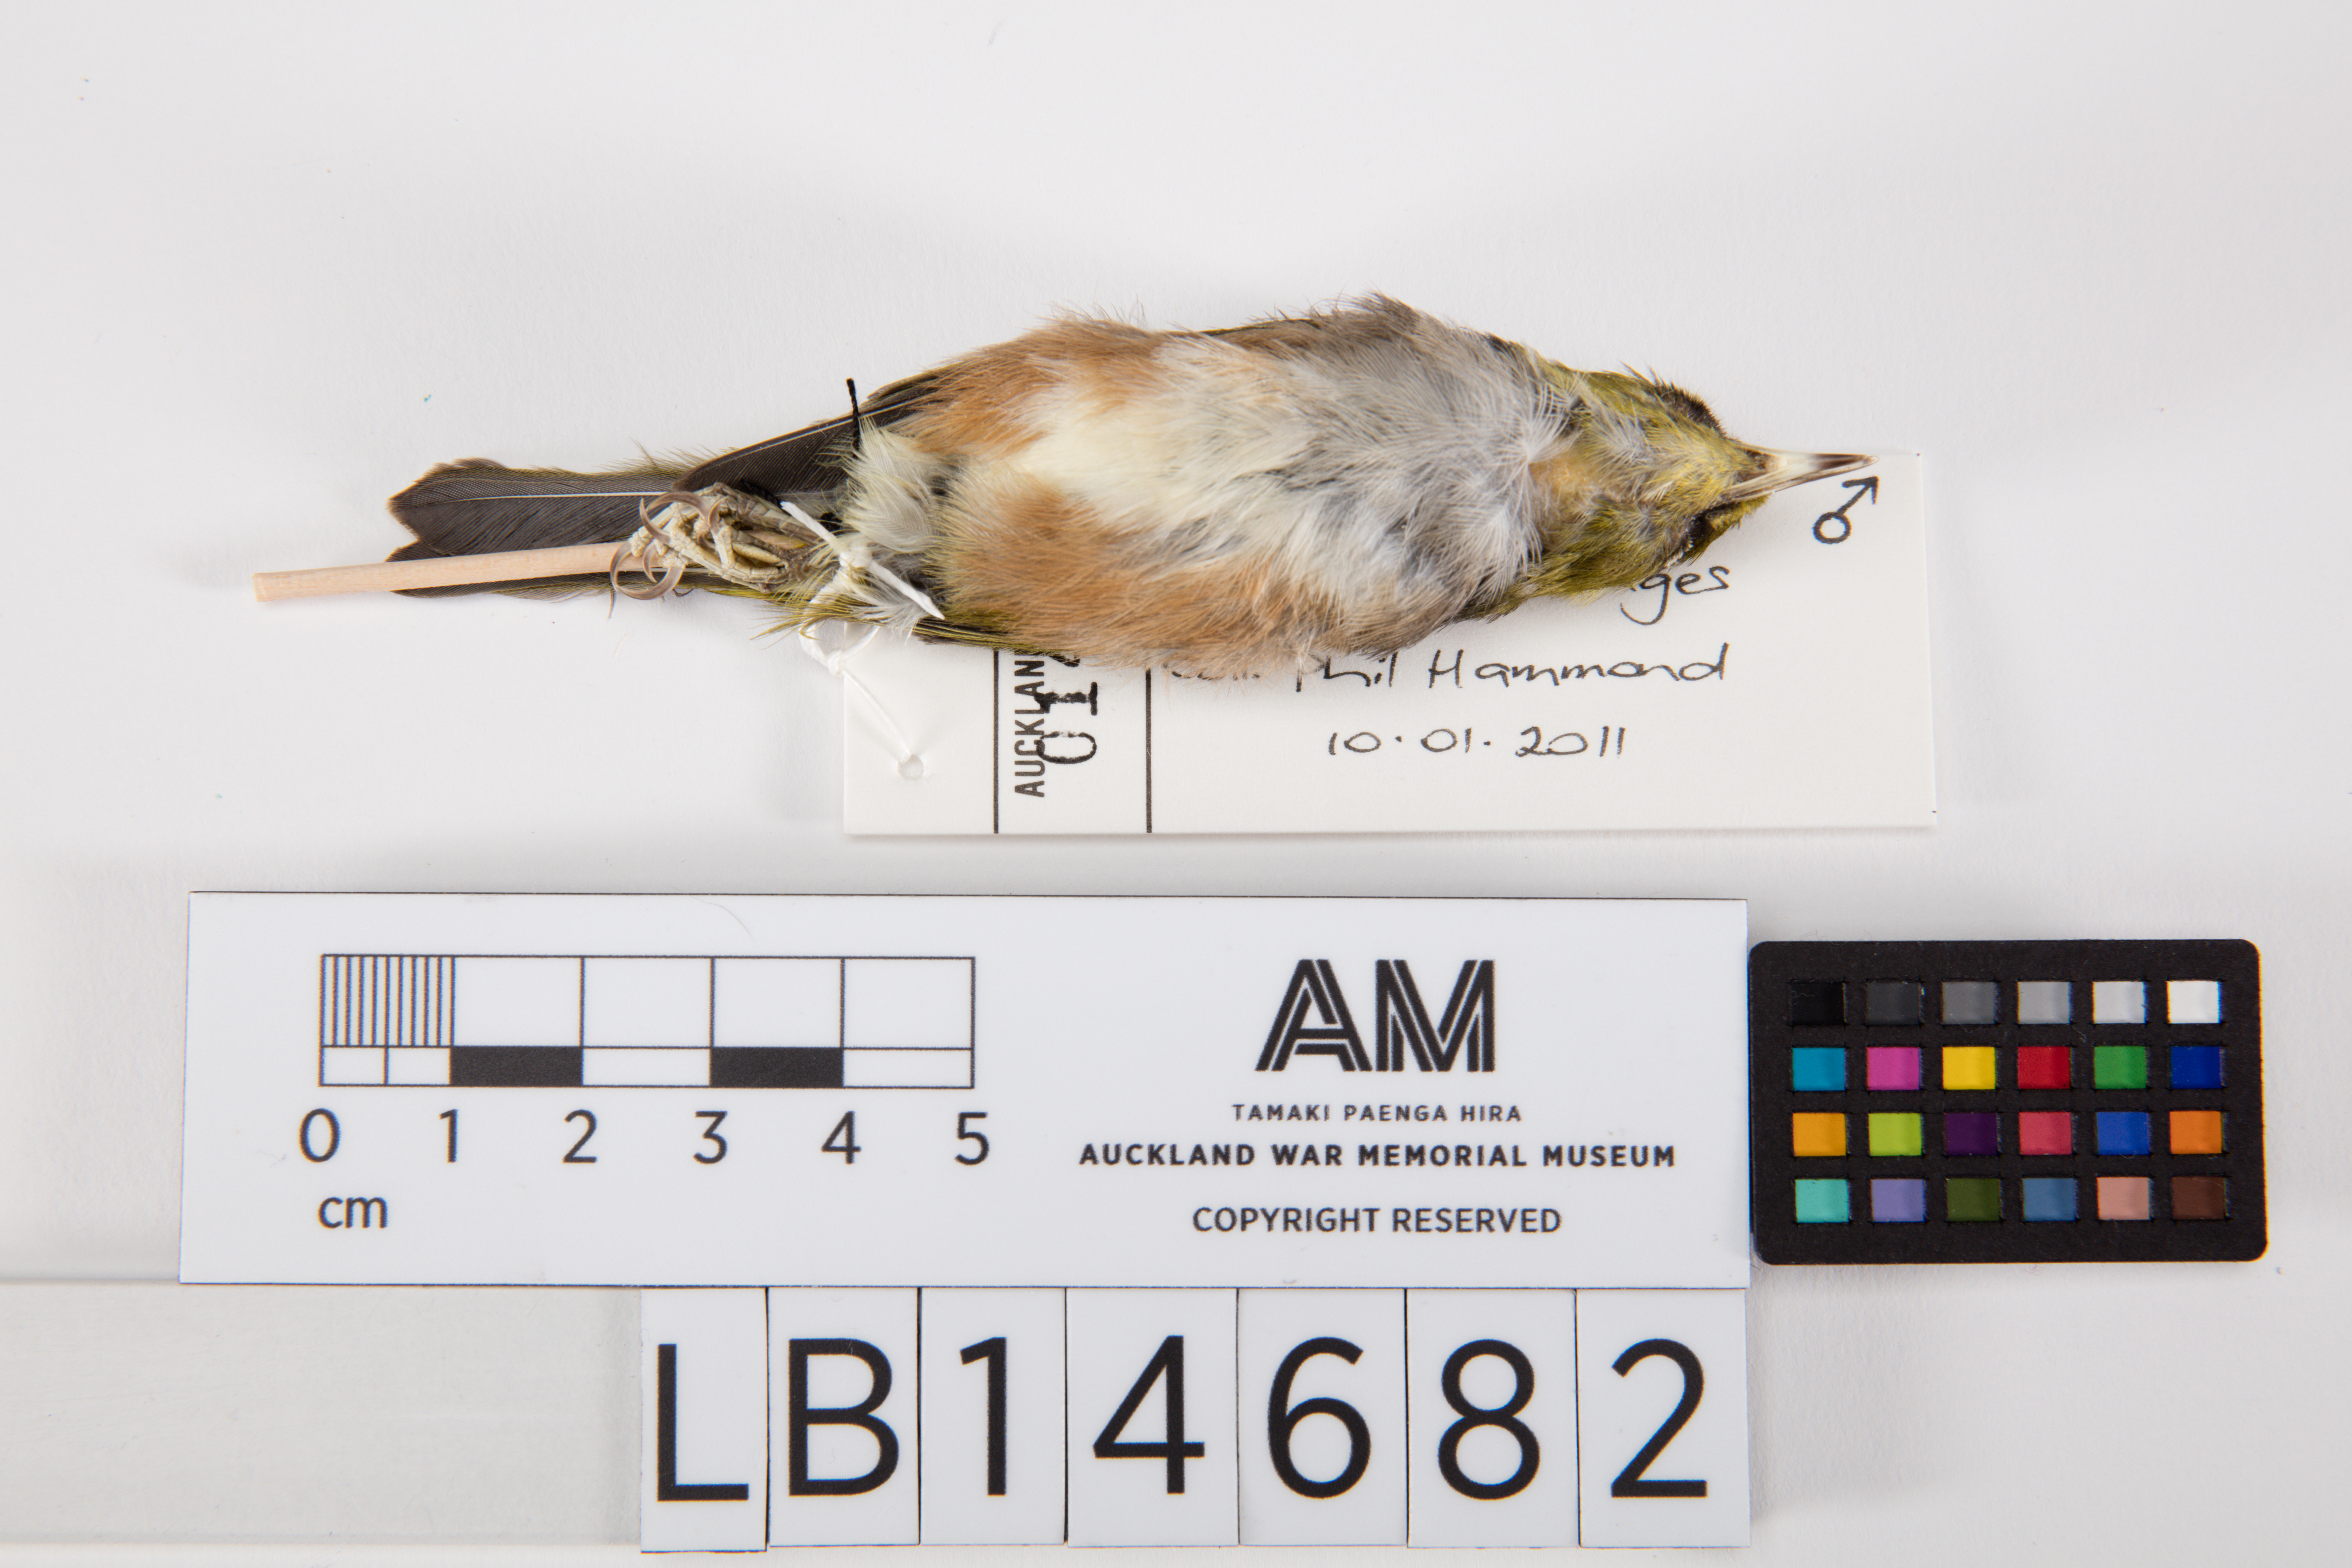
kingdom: Animalia
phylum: Chordata
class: Aves
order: Passeriformes
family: Zosteropidae
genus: Zosterops
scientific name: Zosterops lateralis
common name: Silvereye
